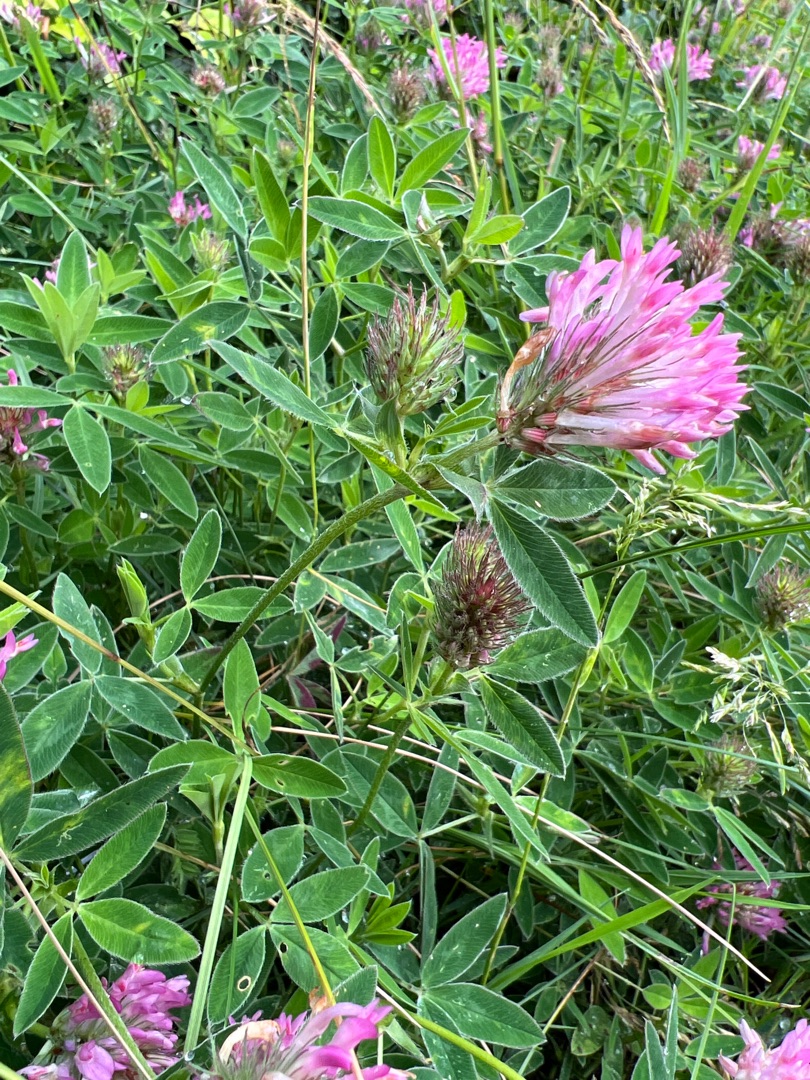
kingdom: Plantae
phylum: Tracheophyta
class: Magnoliopsida
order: Fabales
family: Fabaceae
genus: Trifolium
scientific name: Trifolium medium
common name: Bugtet kløver
